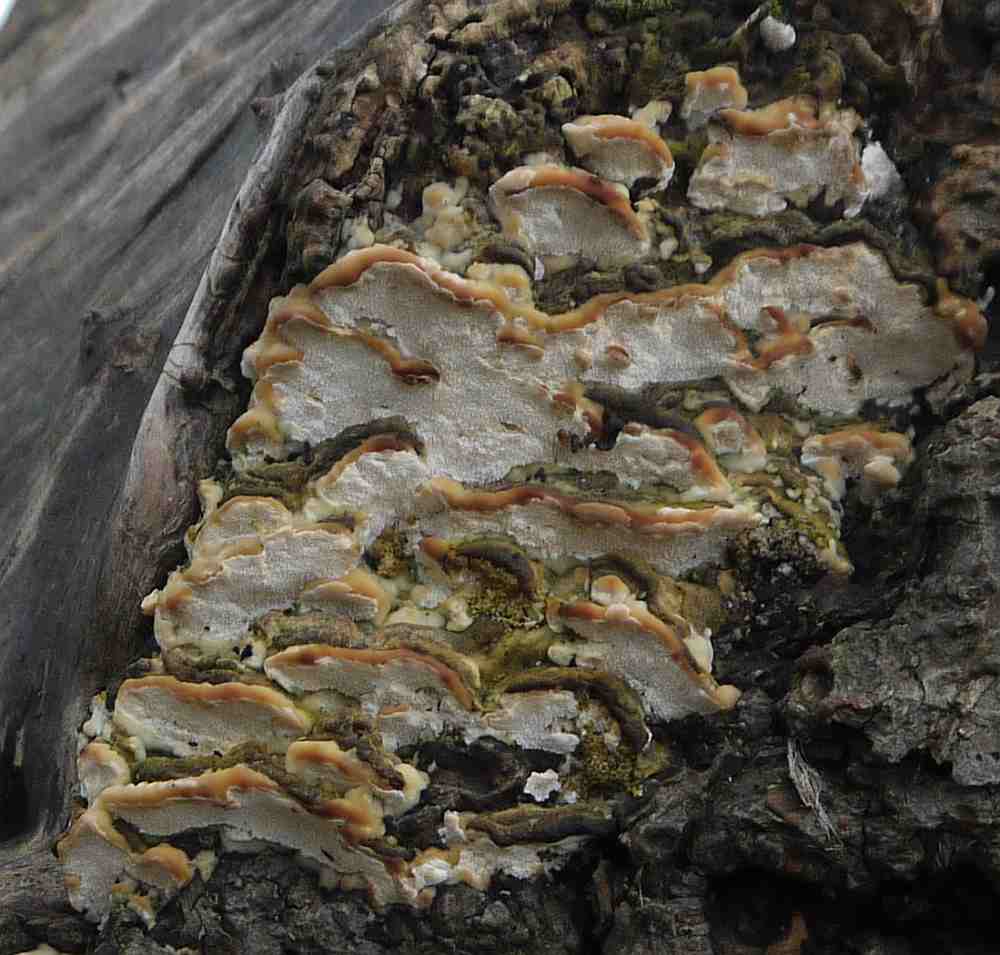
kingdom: Fungi
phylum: Basidiomycota
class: Agaricomycetes
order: Hymenochaetales
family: Hymenochaetaceae
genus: Phellinus
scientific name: Phellinus populicola
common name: poppel-ildporesvamp
